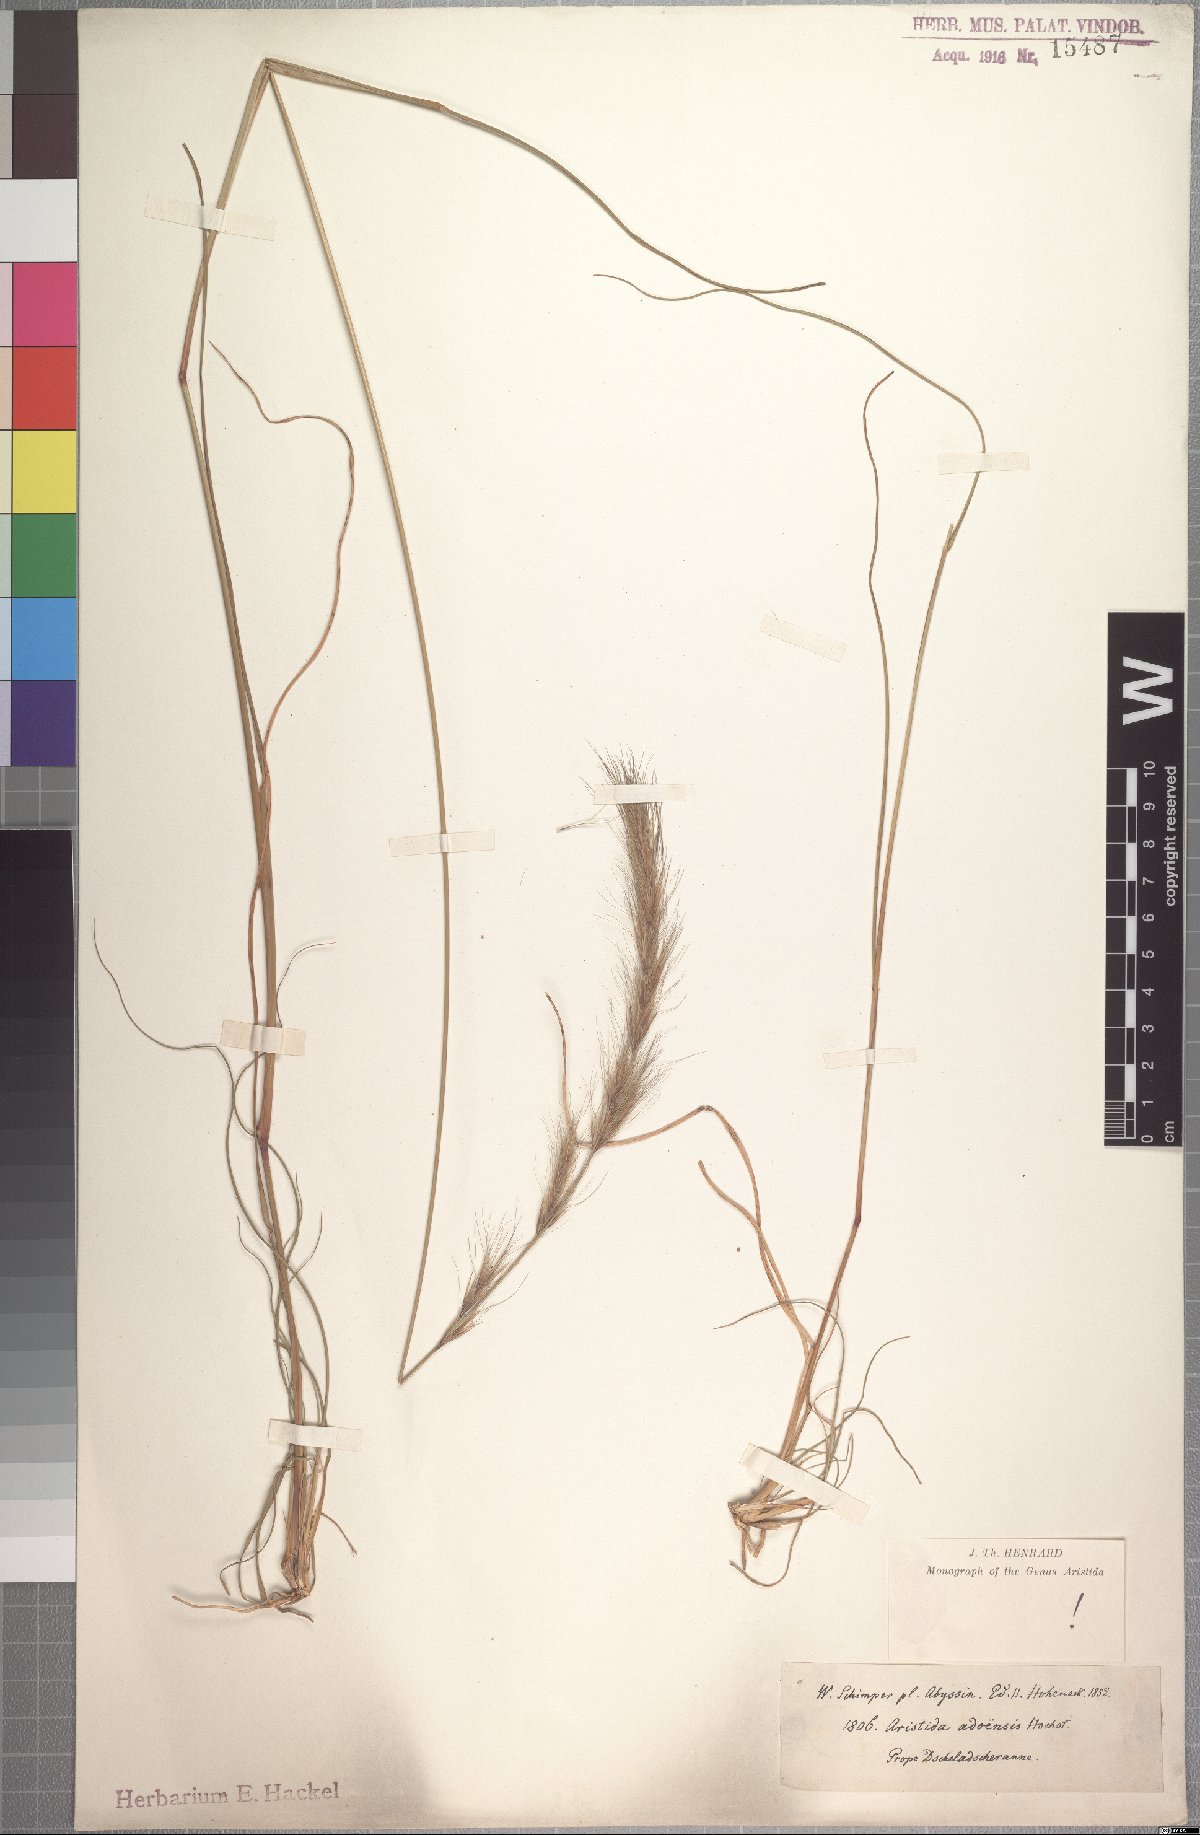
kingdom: Plantae
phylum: Tracheophyta
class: Liliopsida
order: Poales
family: Poaceae
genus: Aristida
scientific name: Aristida adoensis
